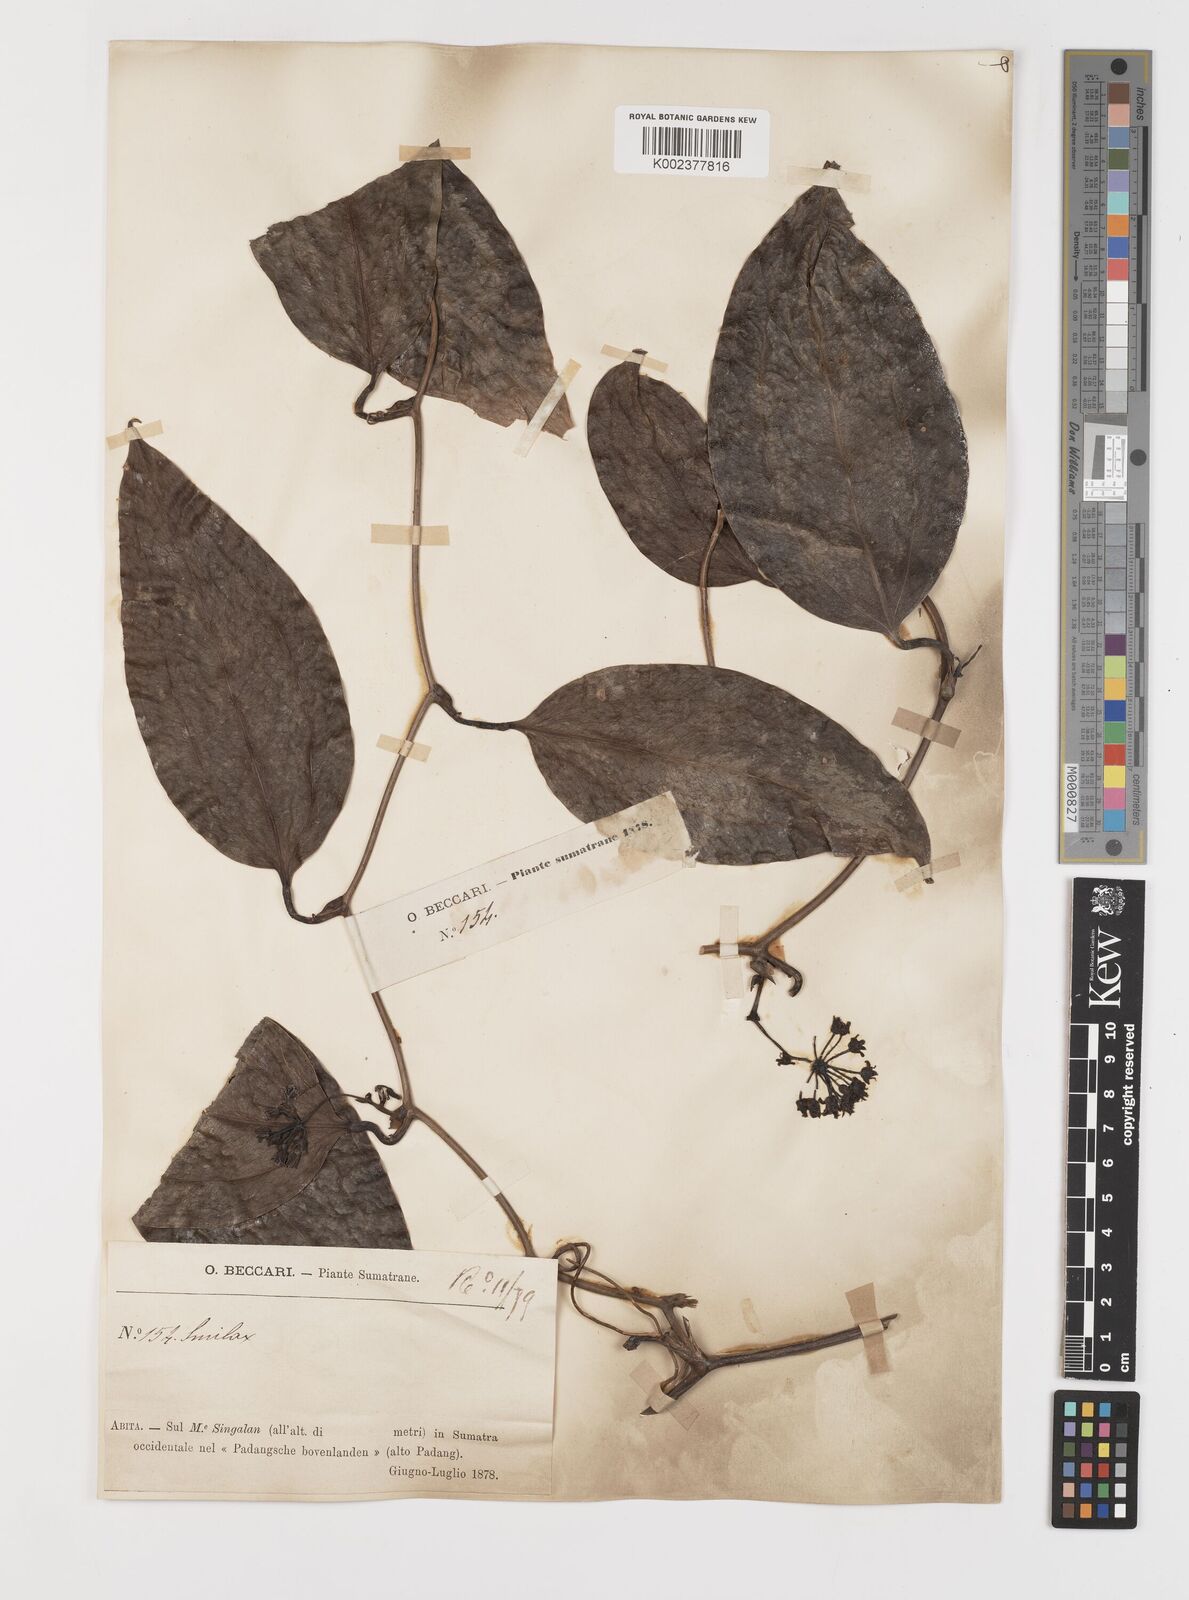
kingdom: Plantae
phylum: Tracheophyta
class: Liliopsida
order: Liliales
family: Smilacaceae
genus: Smilax
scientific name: Smilax
